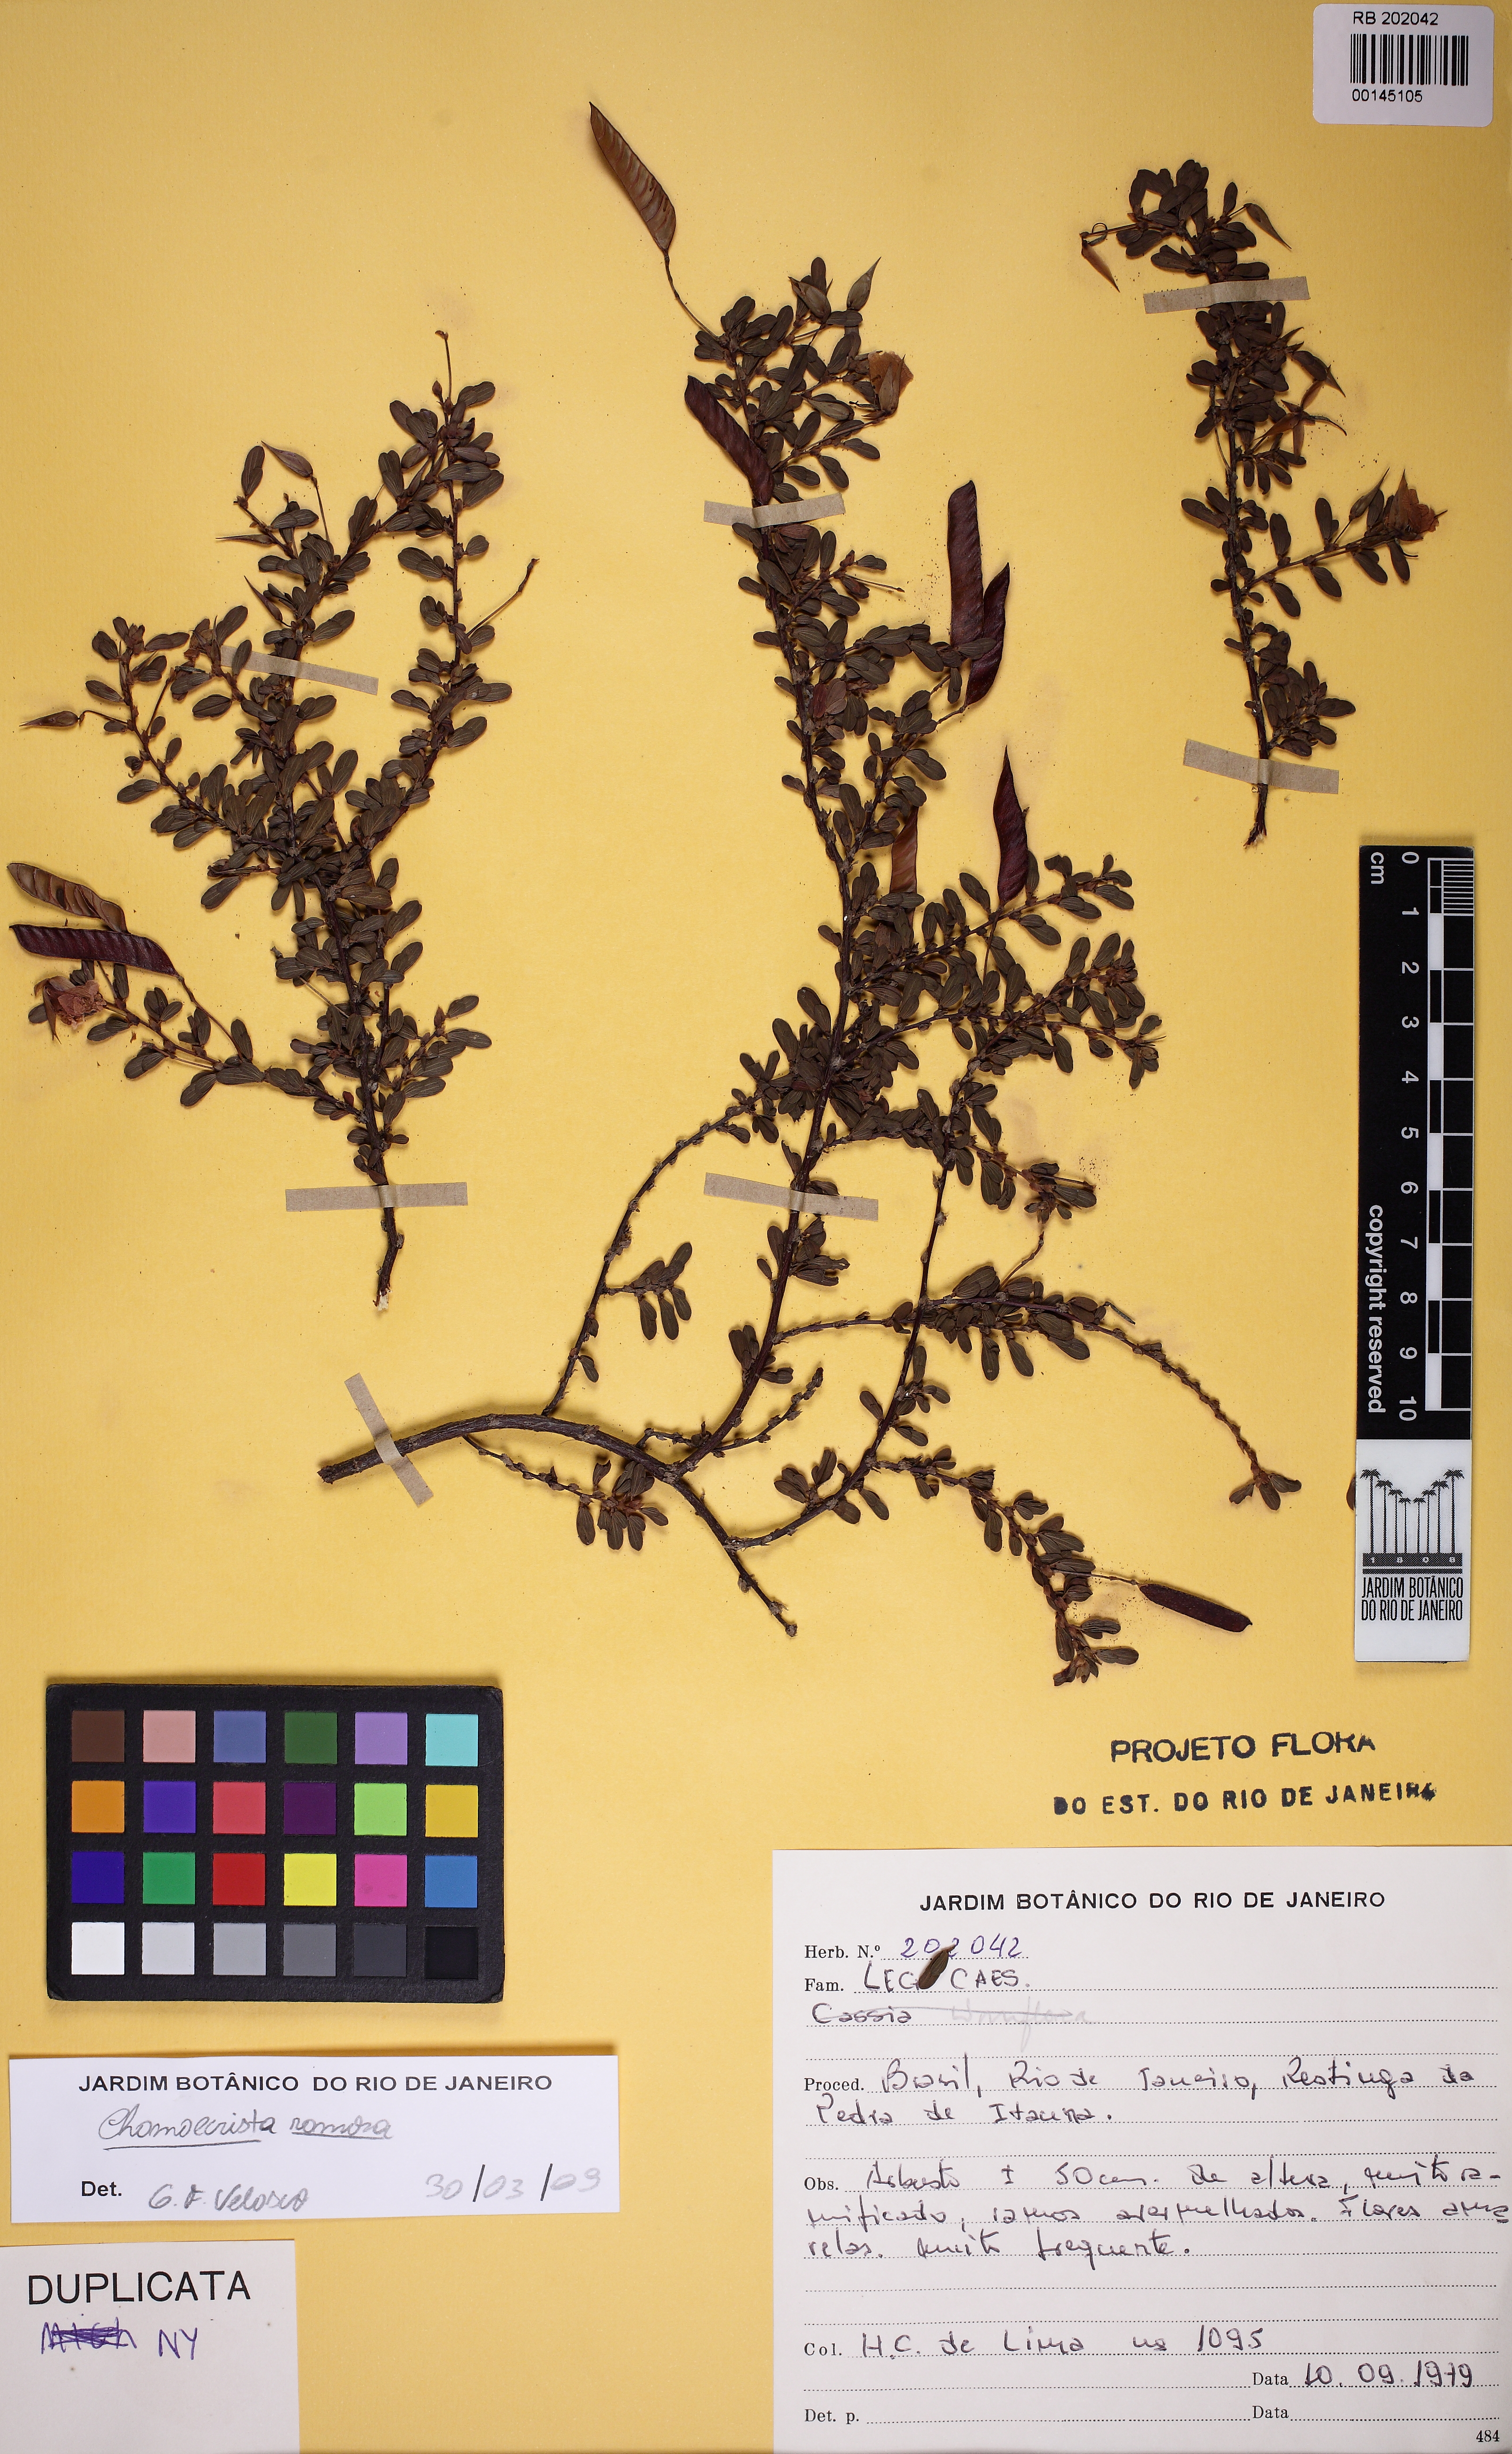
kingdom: Plantae
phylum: Tracheophyta
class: Magnoliopsida
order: Fabales
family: Fabaceae
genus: Chamaecrista
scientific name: Chamaecrista ramosa
